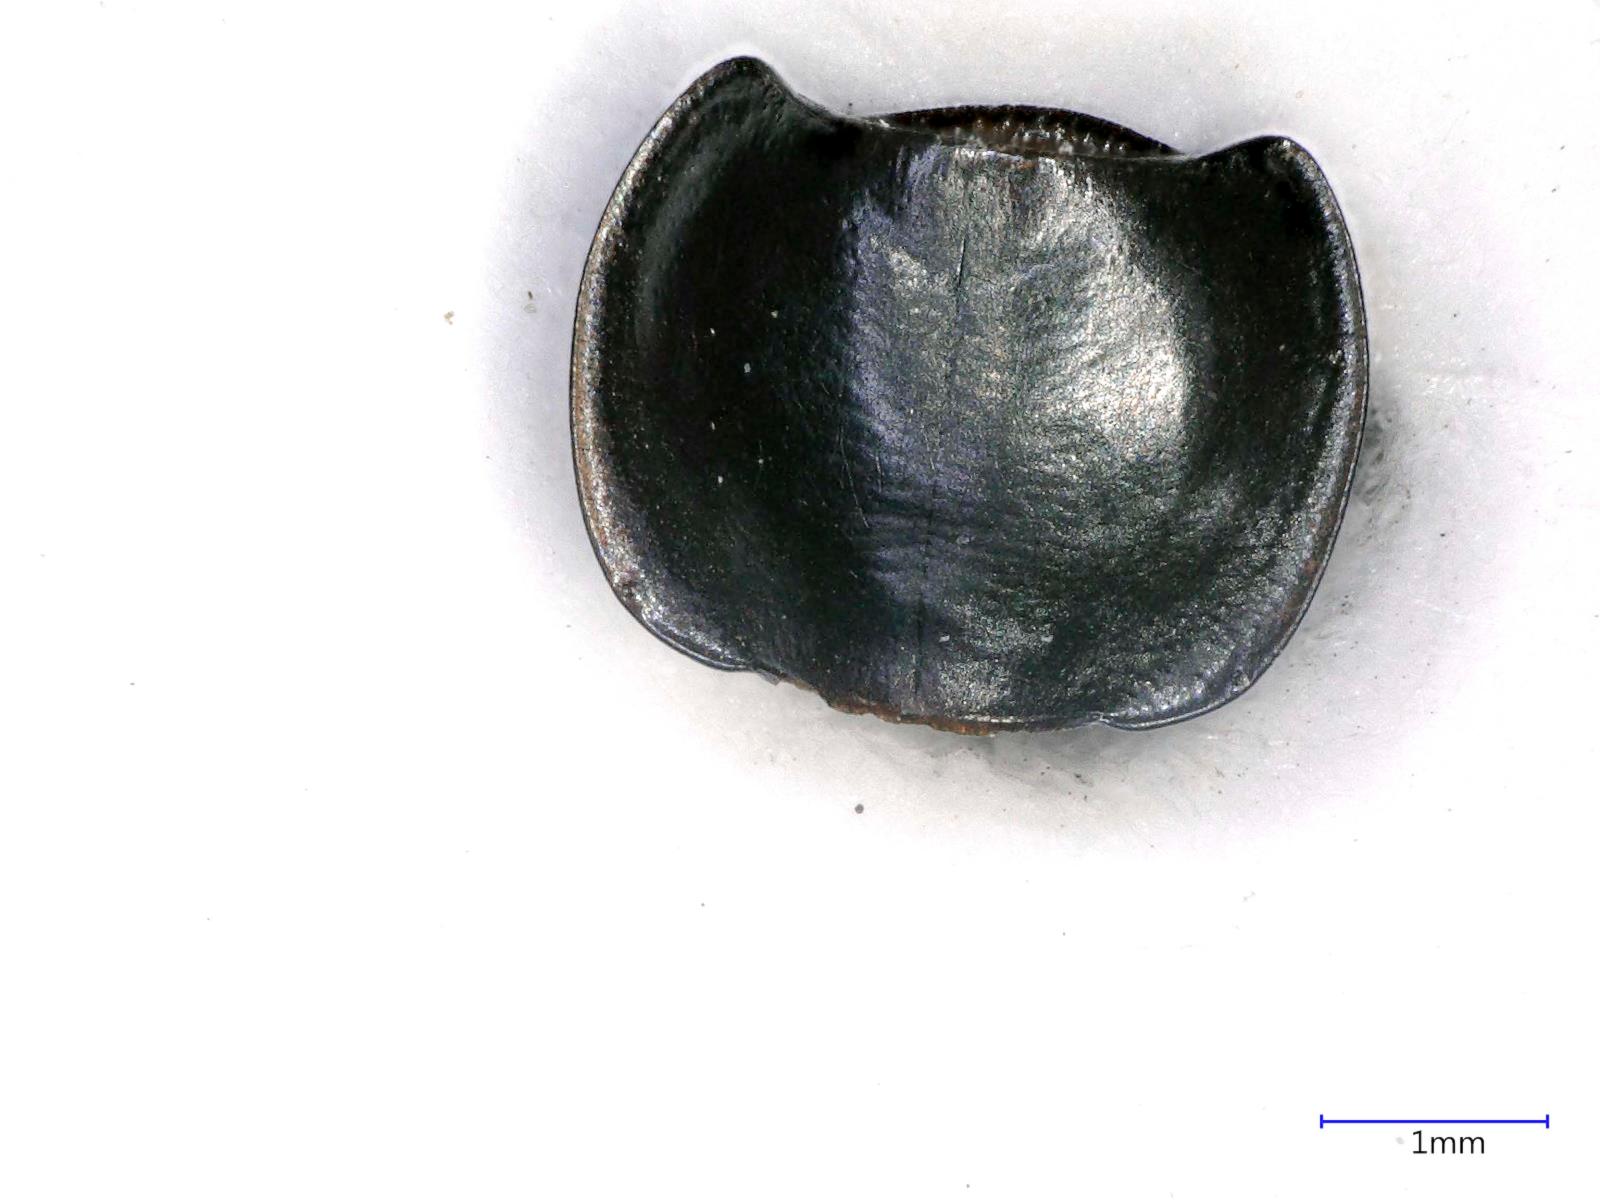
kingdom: Animalia
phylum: Arthropoda
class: Insecta
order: Coleoptera
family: Carabidae
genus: Tanystoma
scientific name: Tanystoma maculicolle
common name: Tule beetle
